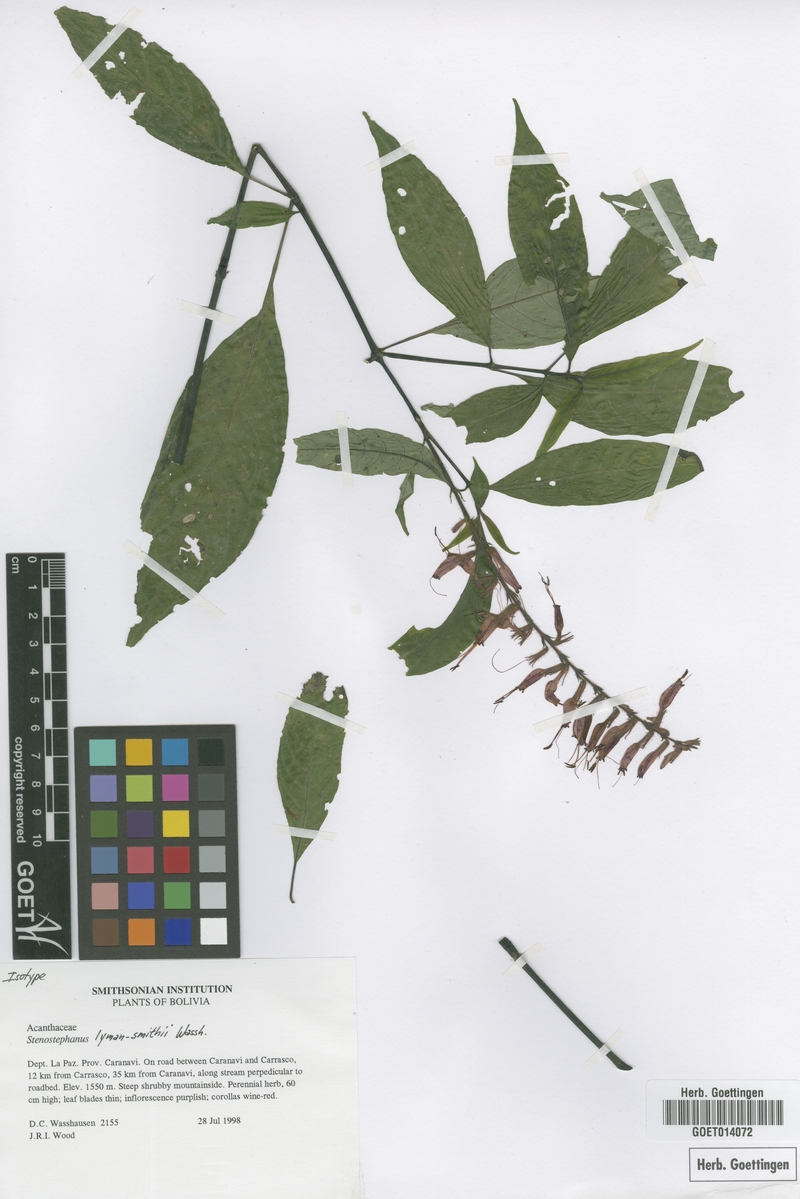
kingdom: Plantae
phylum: Tracheophyta
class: Magnoliopsida
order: Lamiales
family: Acanthaceae
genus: Stenostephanus
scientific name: Stenostephanus lyman-smithii
